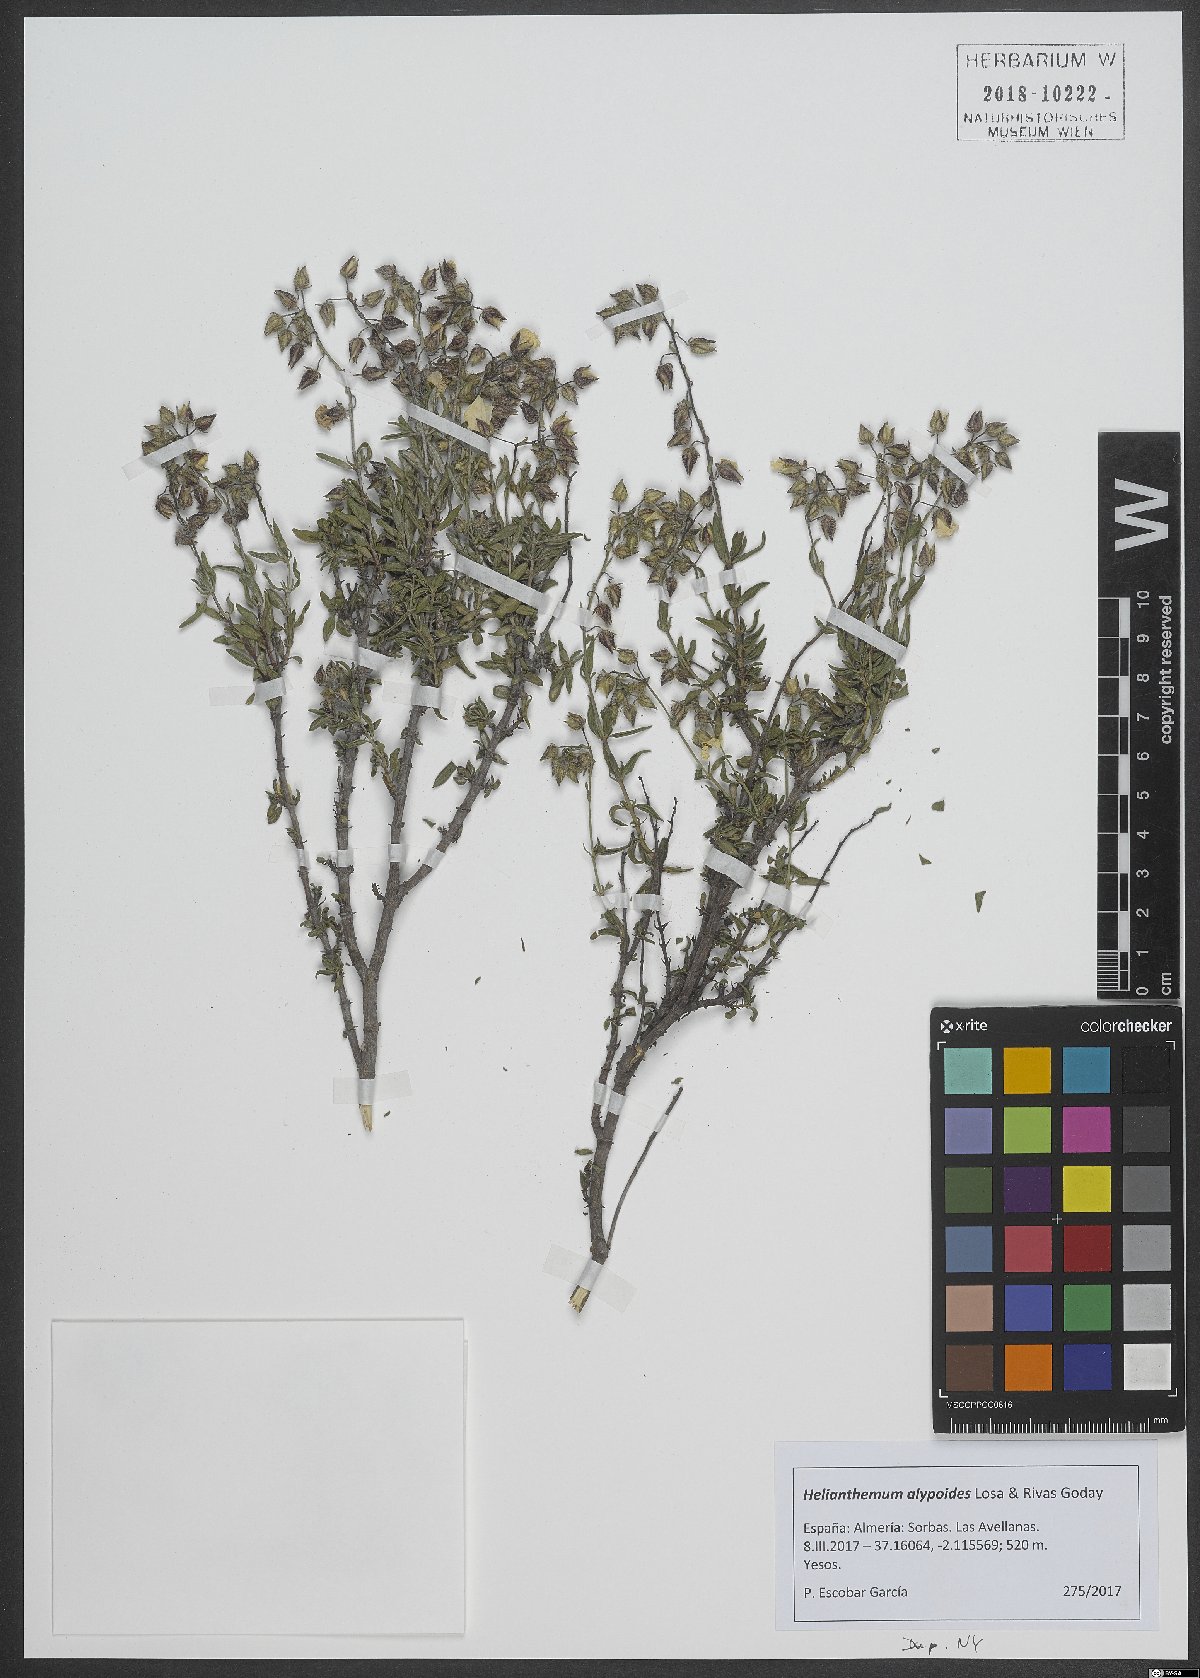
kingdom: Plantae
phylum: Tracheophyta
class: Magnoliopsida
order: Malvales
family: Cistaceae
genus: Helianthemum
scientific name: Helianthemum alypoides
